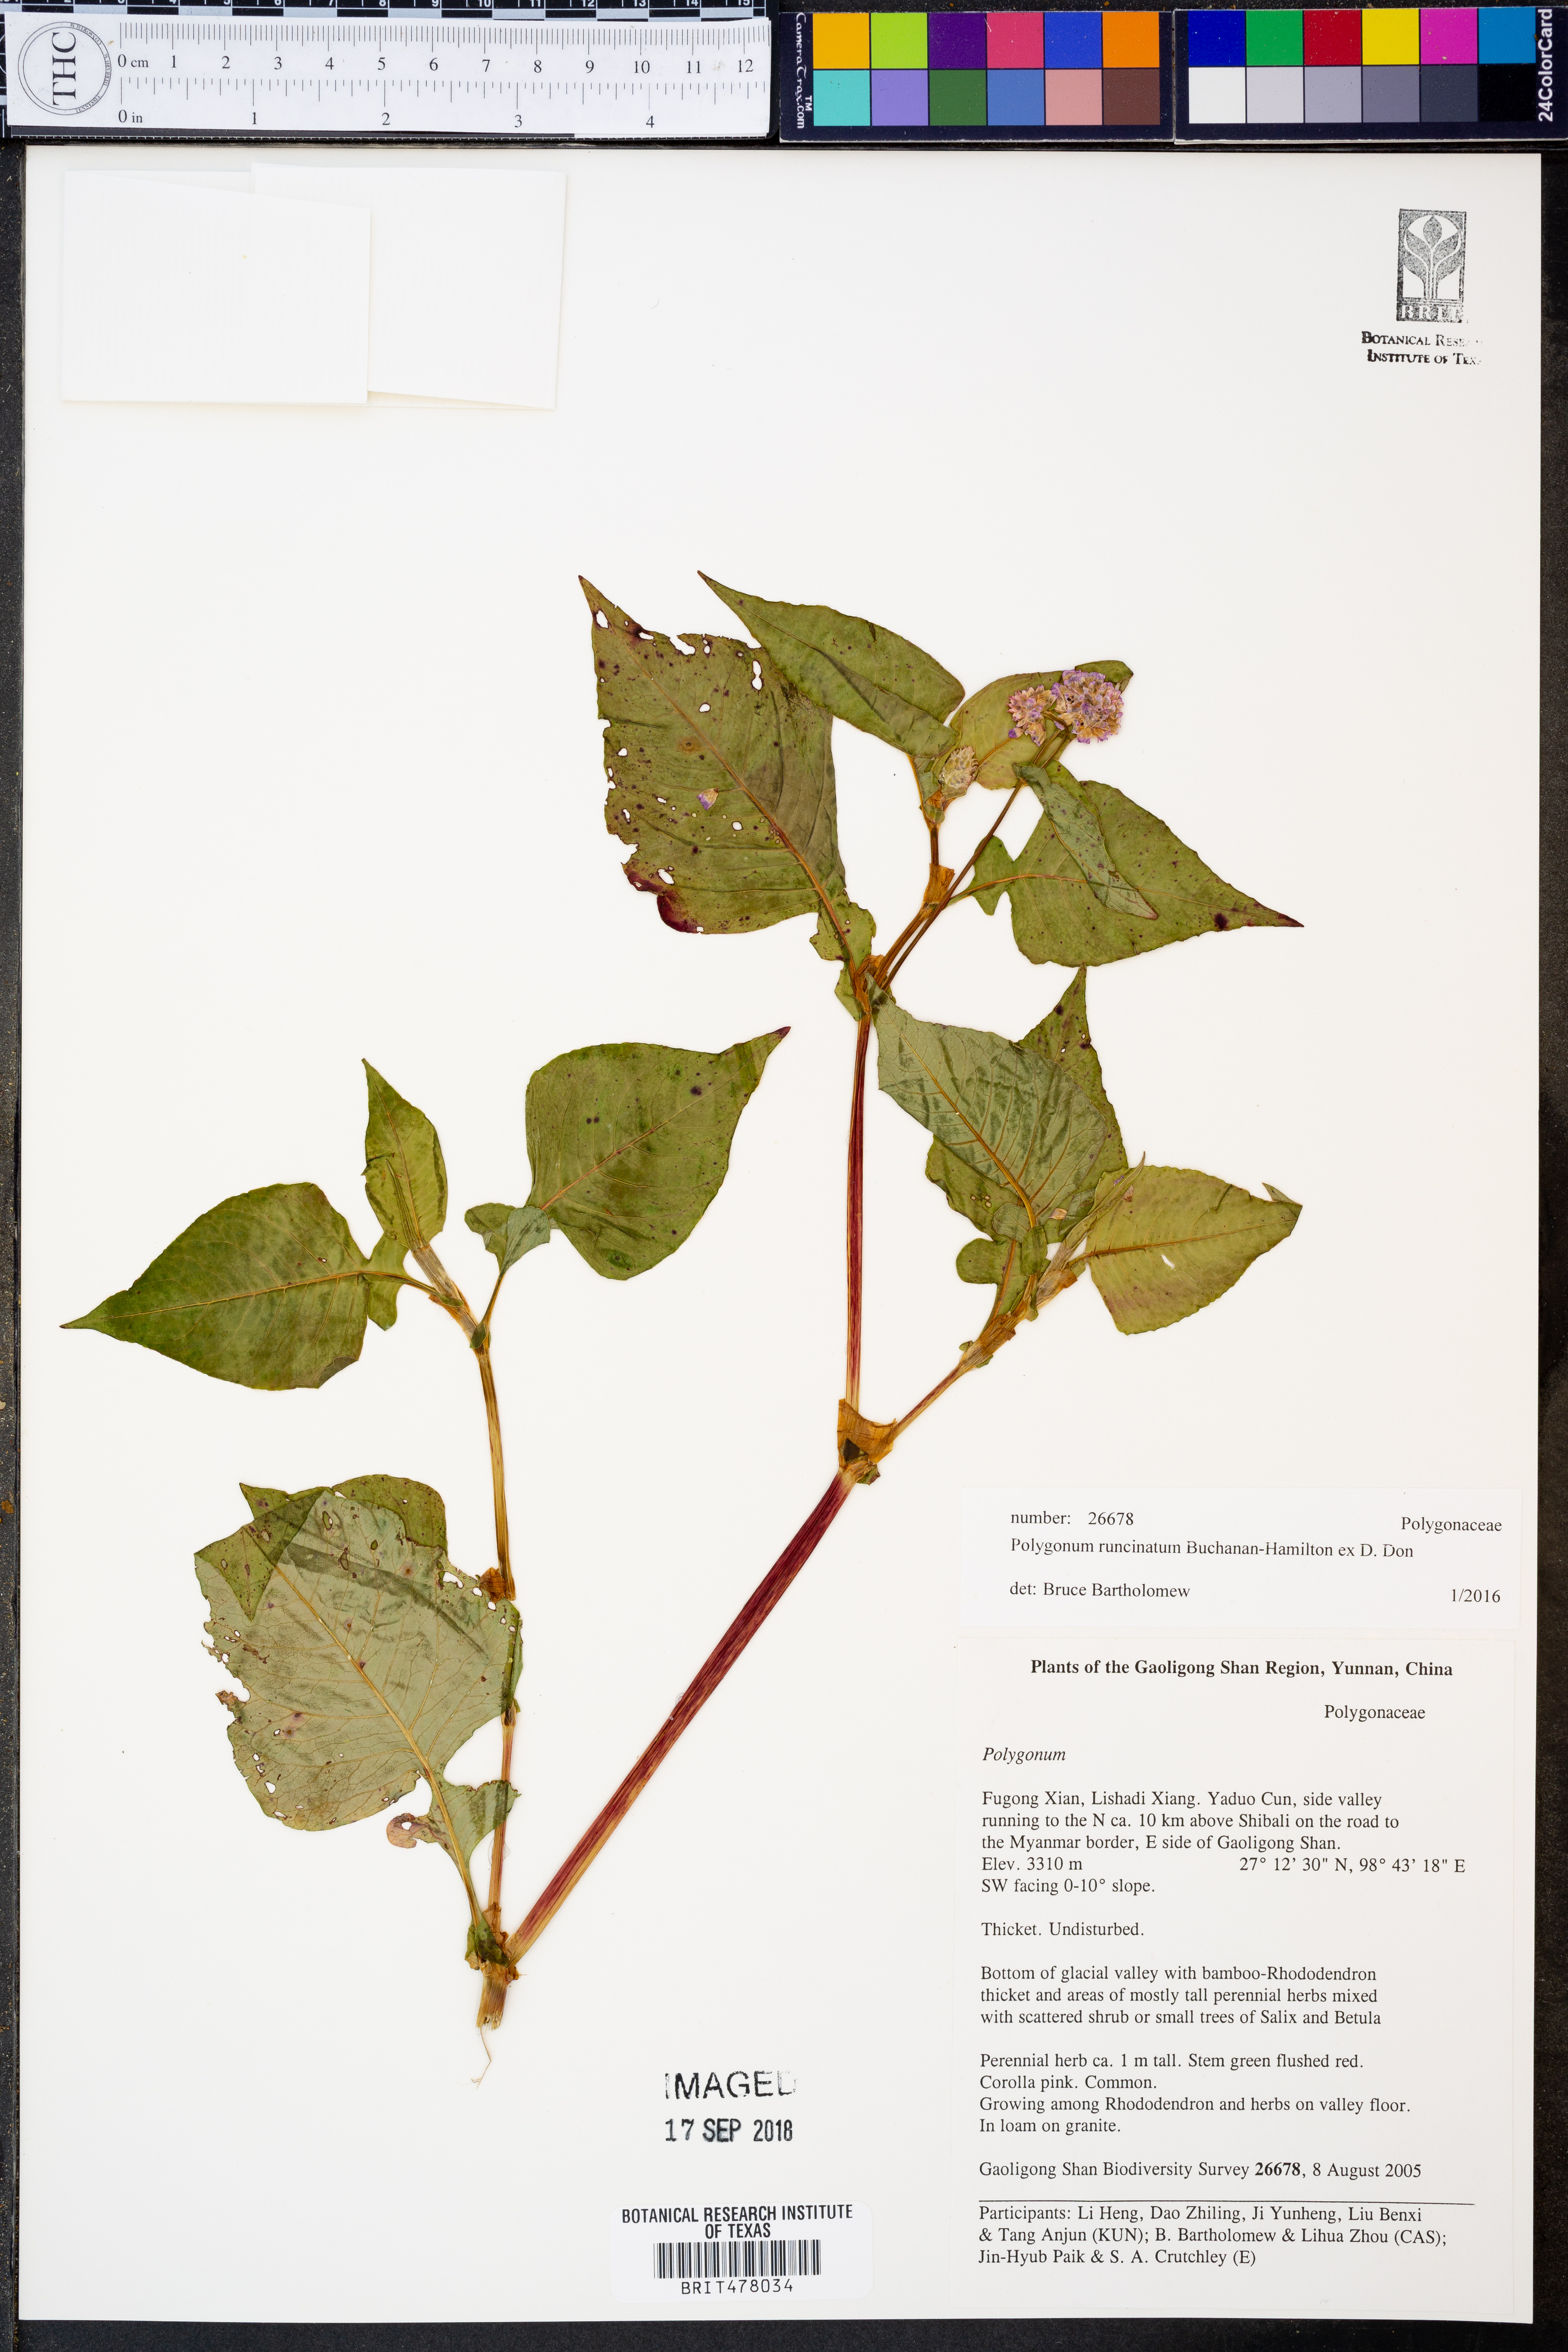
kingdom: Plantae
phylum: Tracheophyta
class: Magnoliopsida
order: Caryophyllales
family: Polygonaceae
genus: Persicaria
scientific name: Persicaria runcinata
